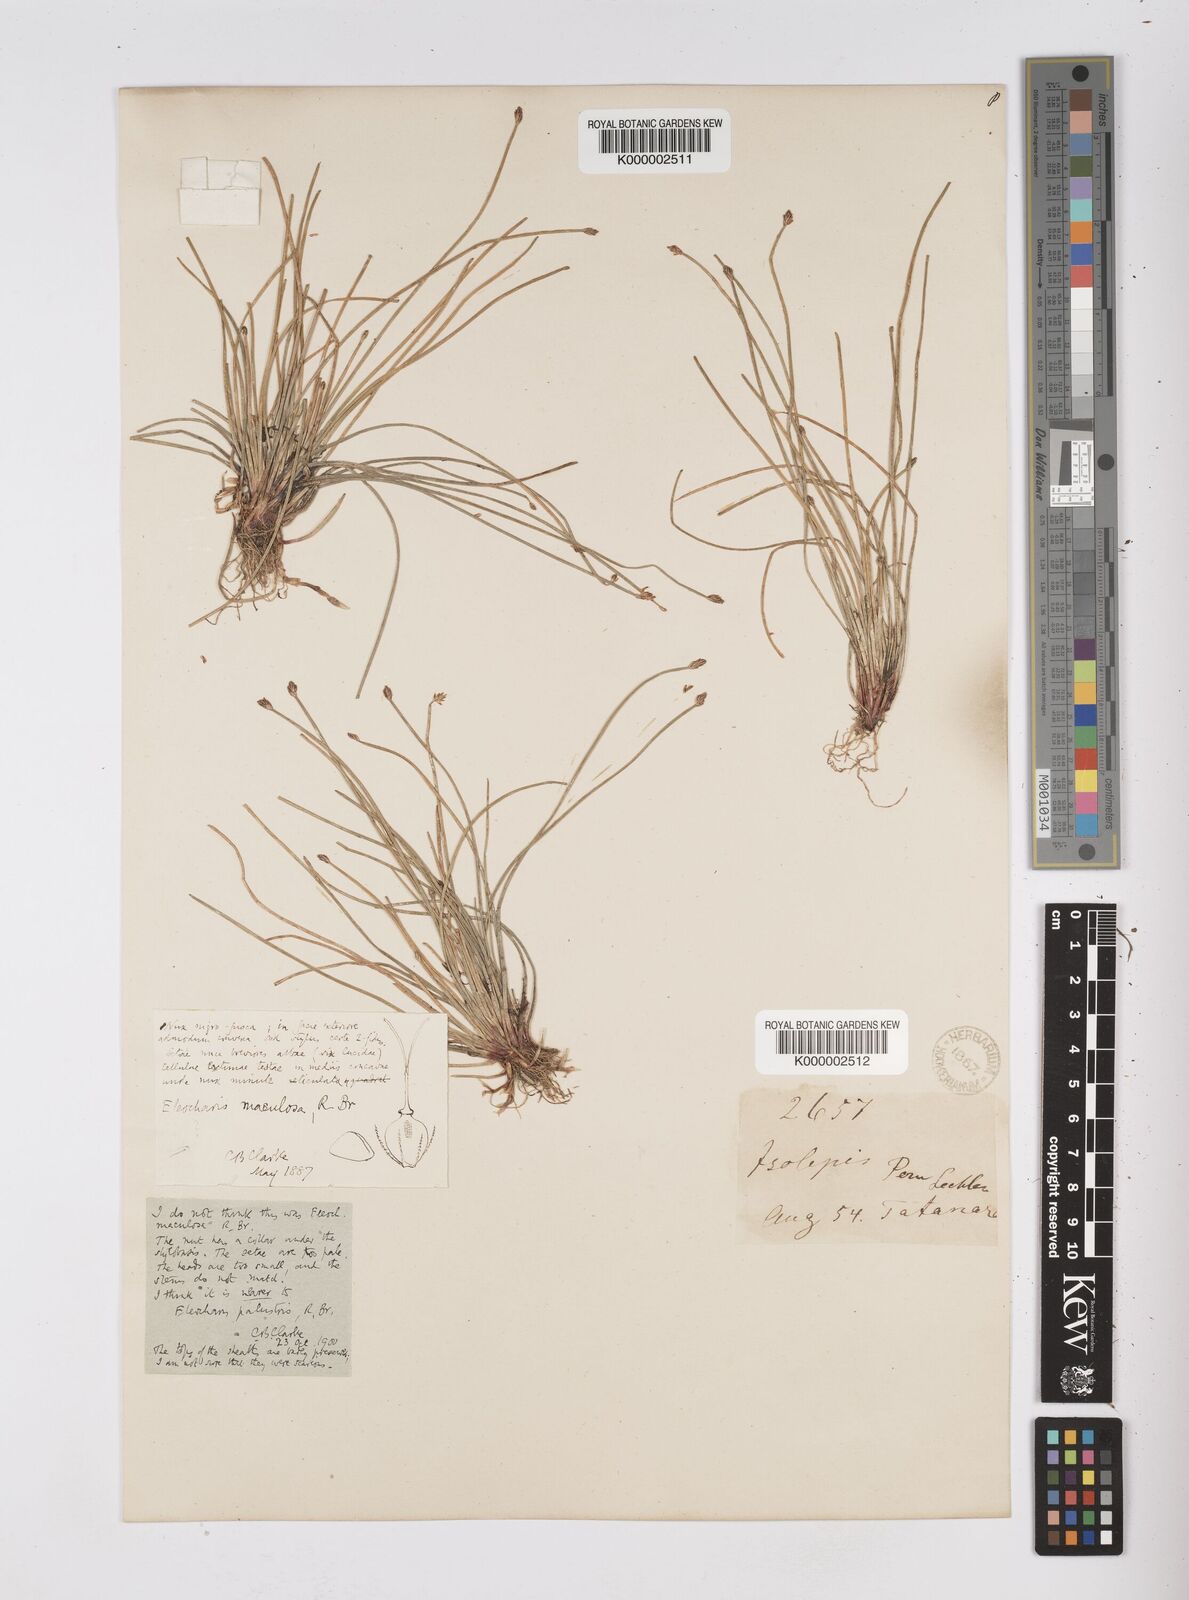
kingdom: Plantae
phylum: Tracheophyta
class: Liliopsida
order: Poales
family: Cyperaceae
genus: Eleocharis
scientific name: Eleocharis maculosa
